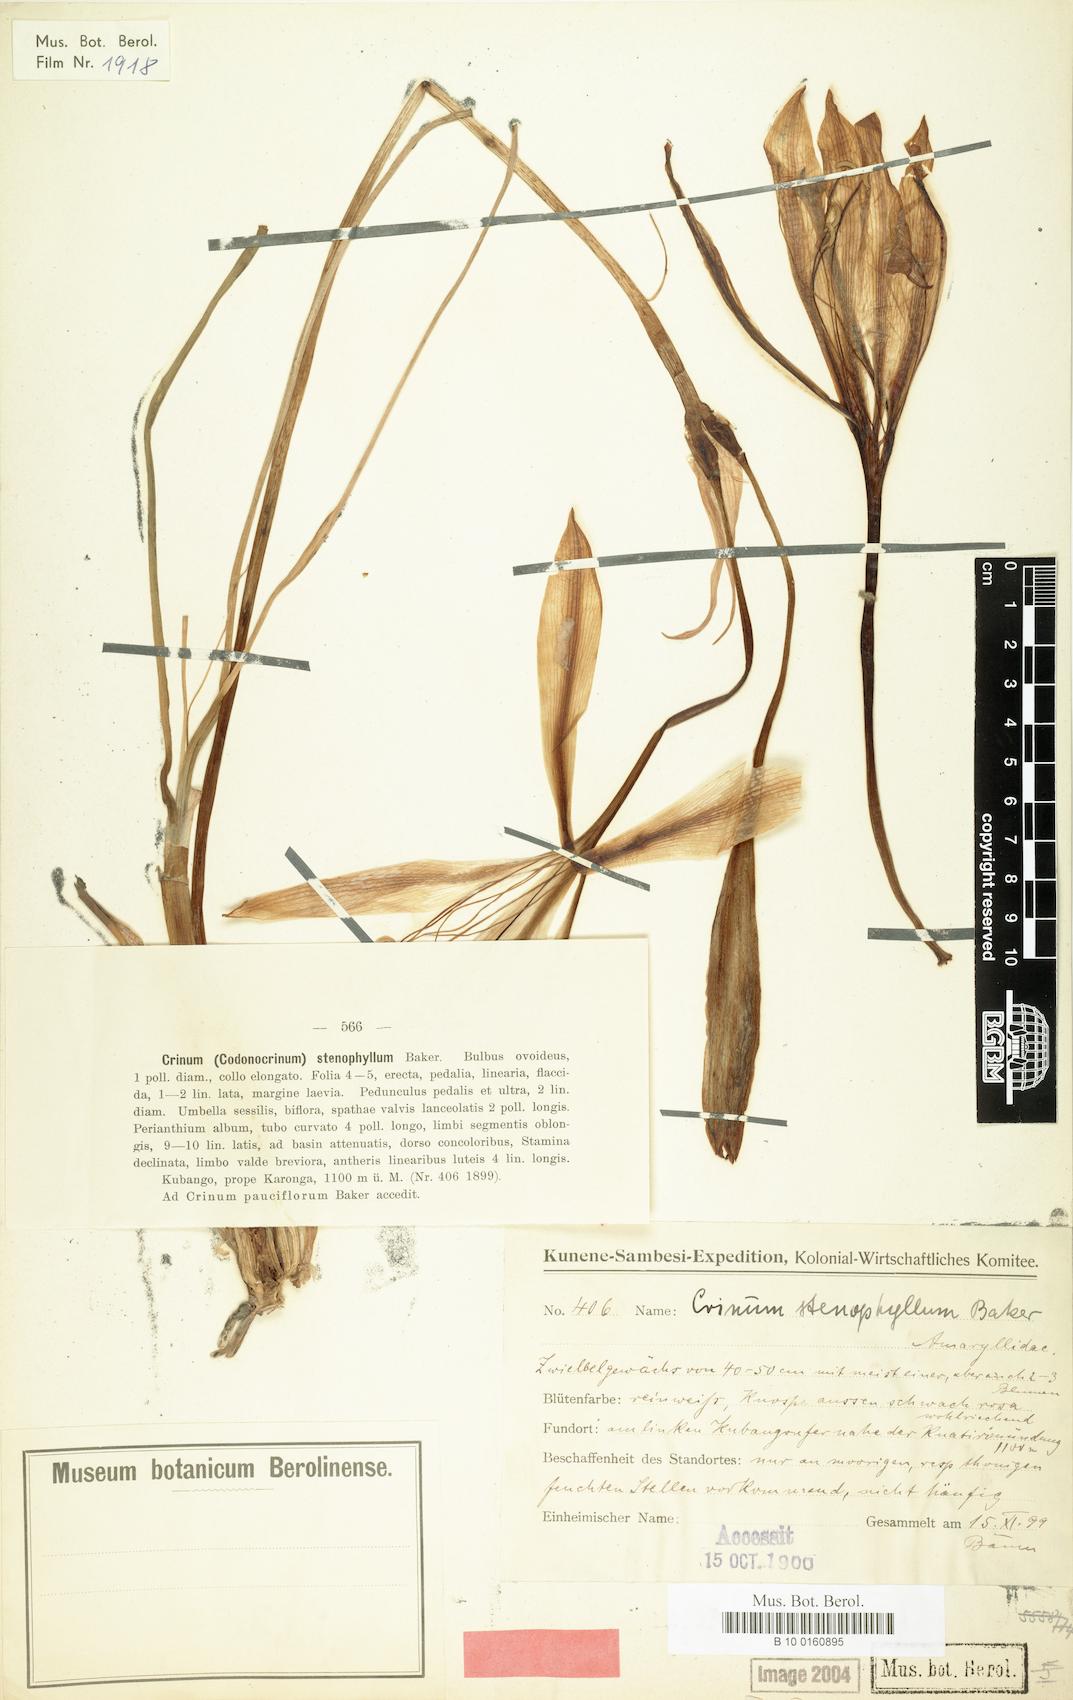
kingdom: Plantae
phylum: Tracheophyta
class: Liliopsida
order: Asparagales
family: Amaryllidaceae
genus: Crinum
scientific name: Crinum stenophyllum
